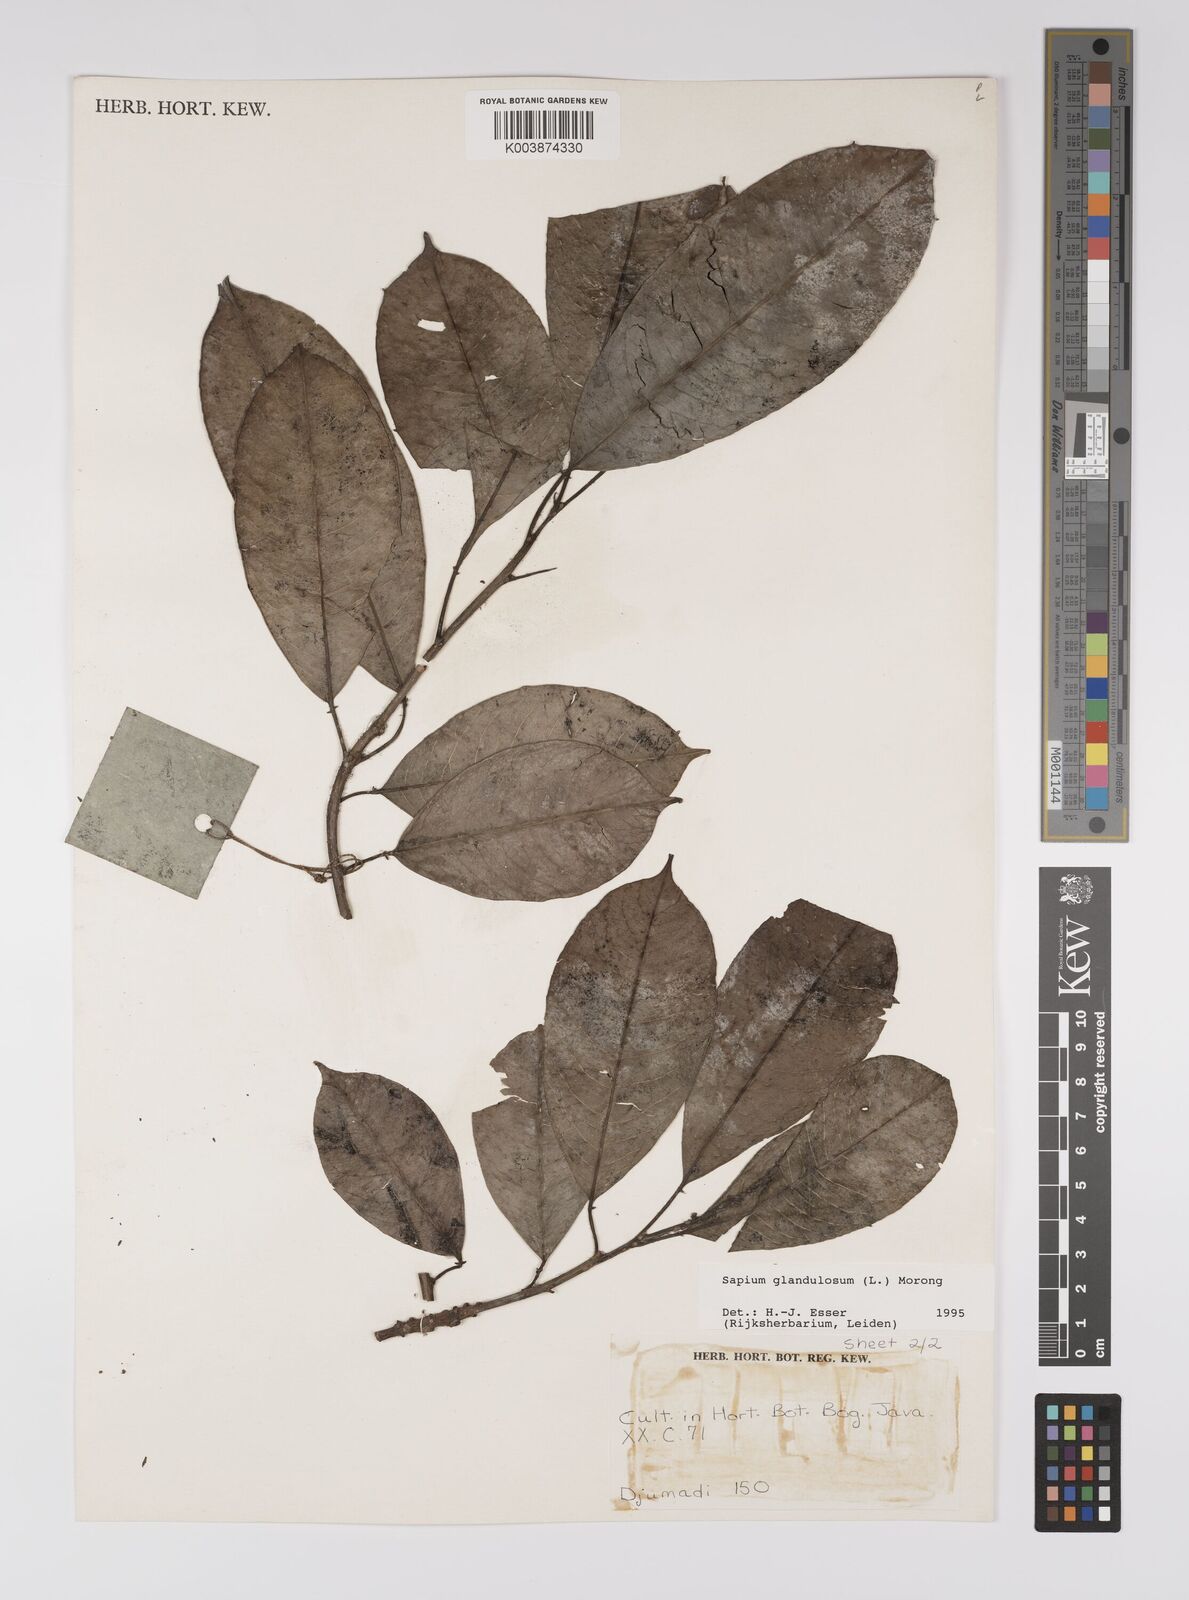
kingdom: Plantae
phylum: Tracheophyta
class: Magnoliopsida
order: Malpighiales
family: Euphorbiaceae
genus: Sapium
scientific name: Sapium
